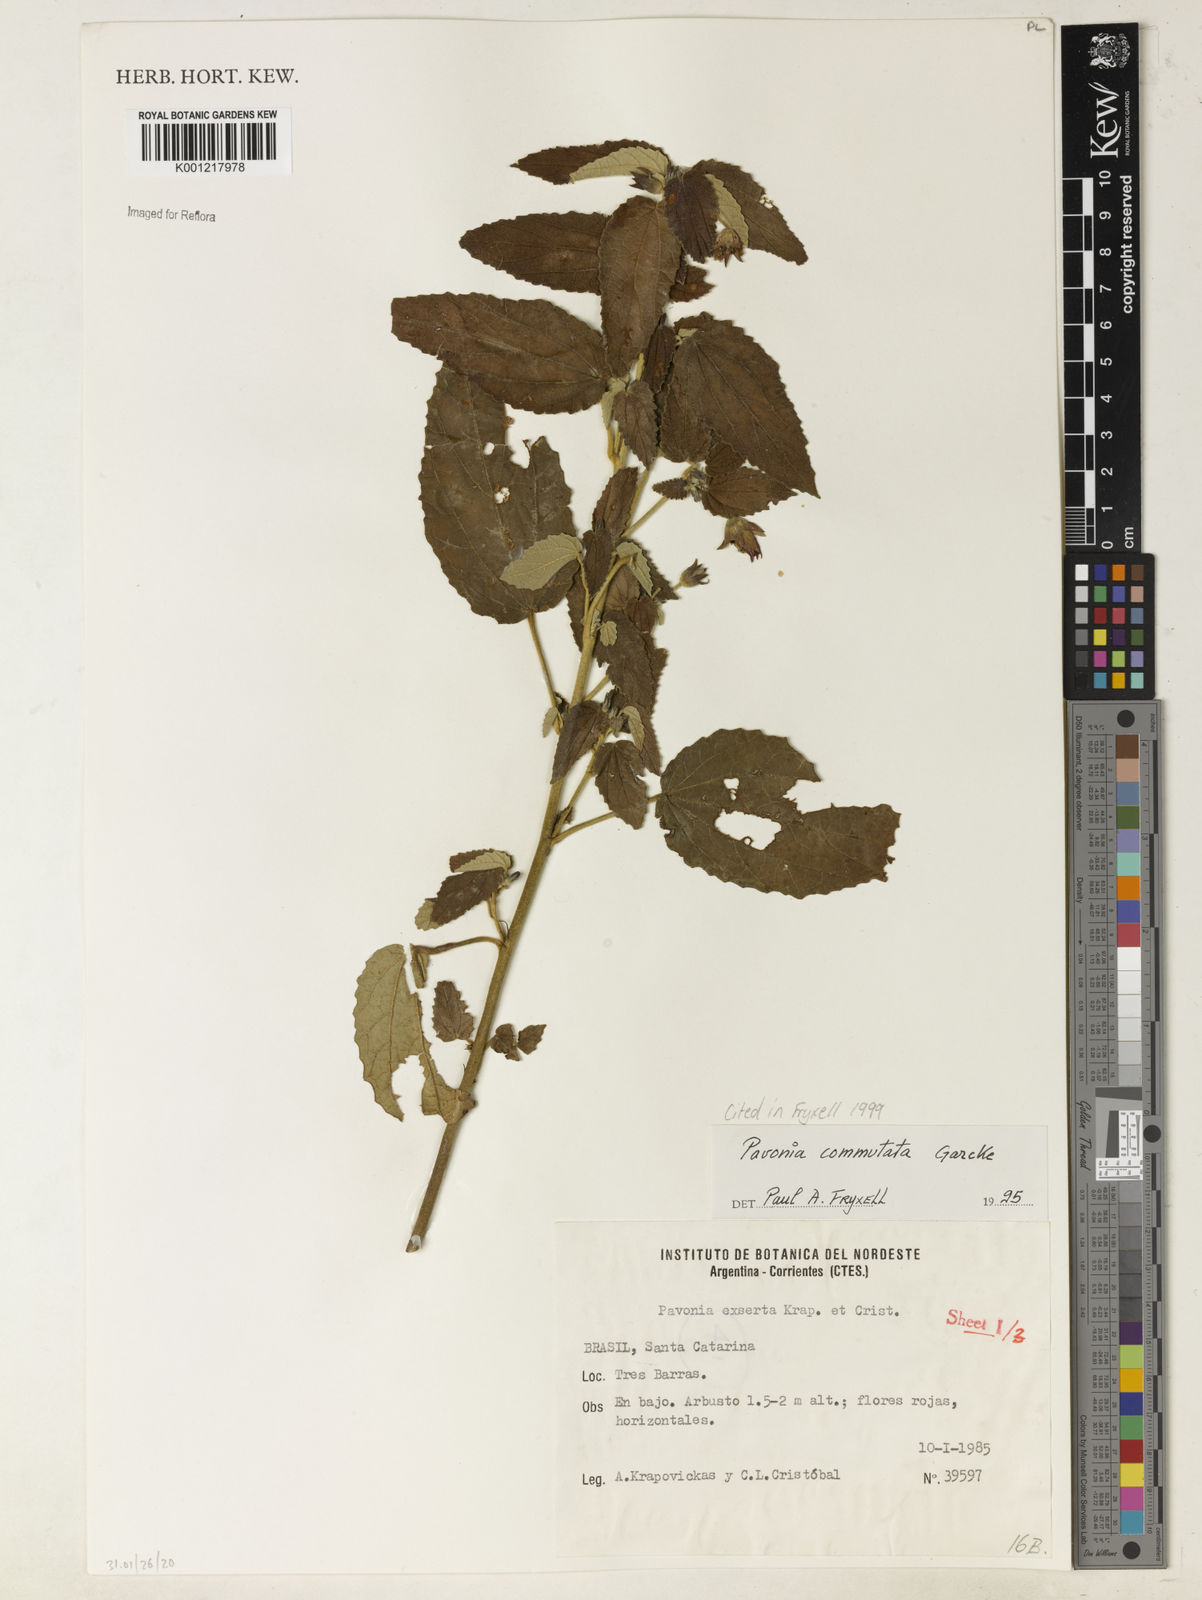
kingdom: Plantae
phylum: Tracheophyta
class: Magnoliopsida
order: Malvales
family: Malvaceae
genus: Pavonia
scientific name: Pavonia commutata
